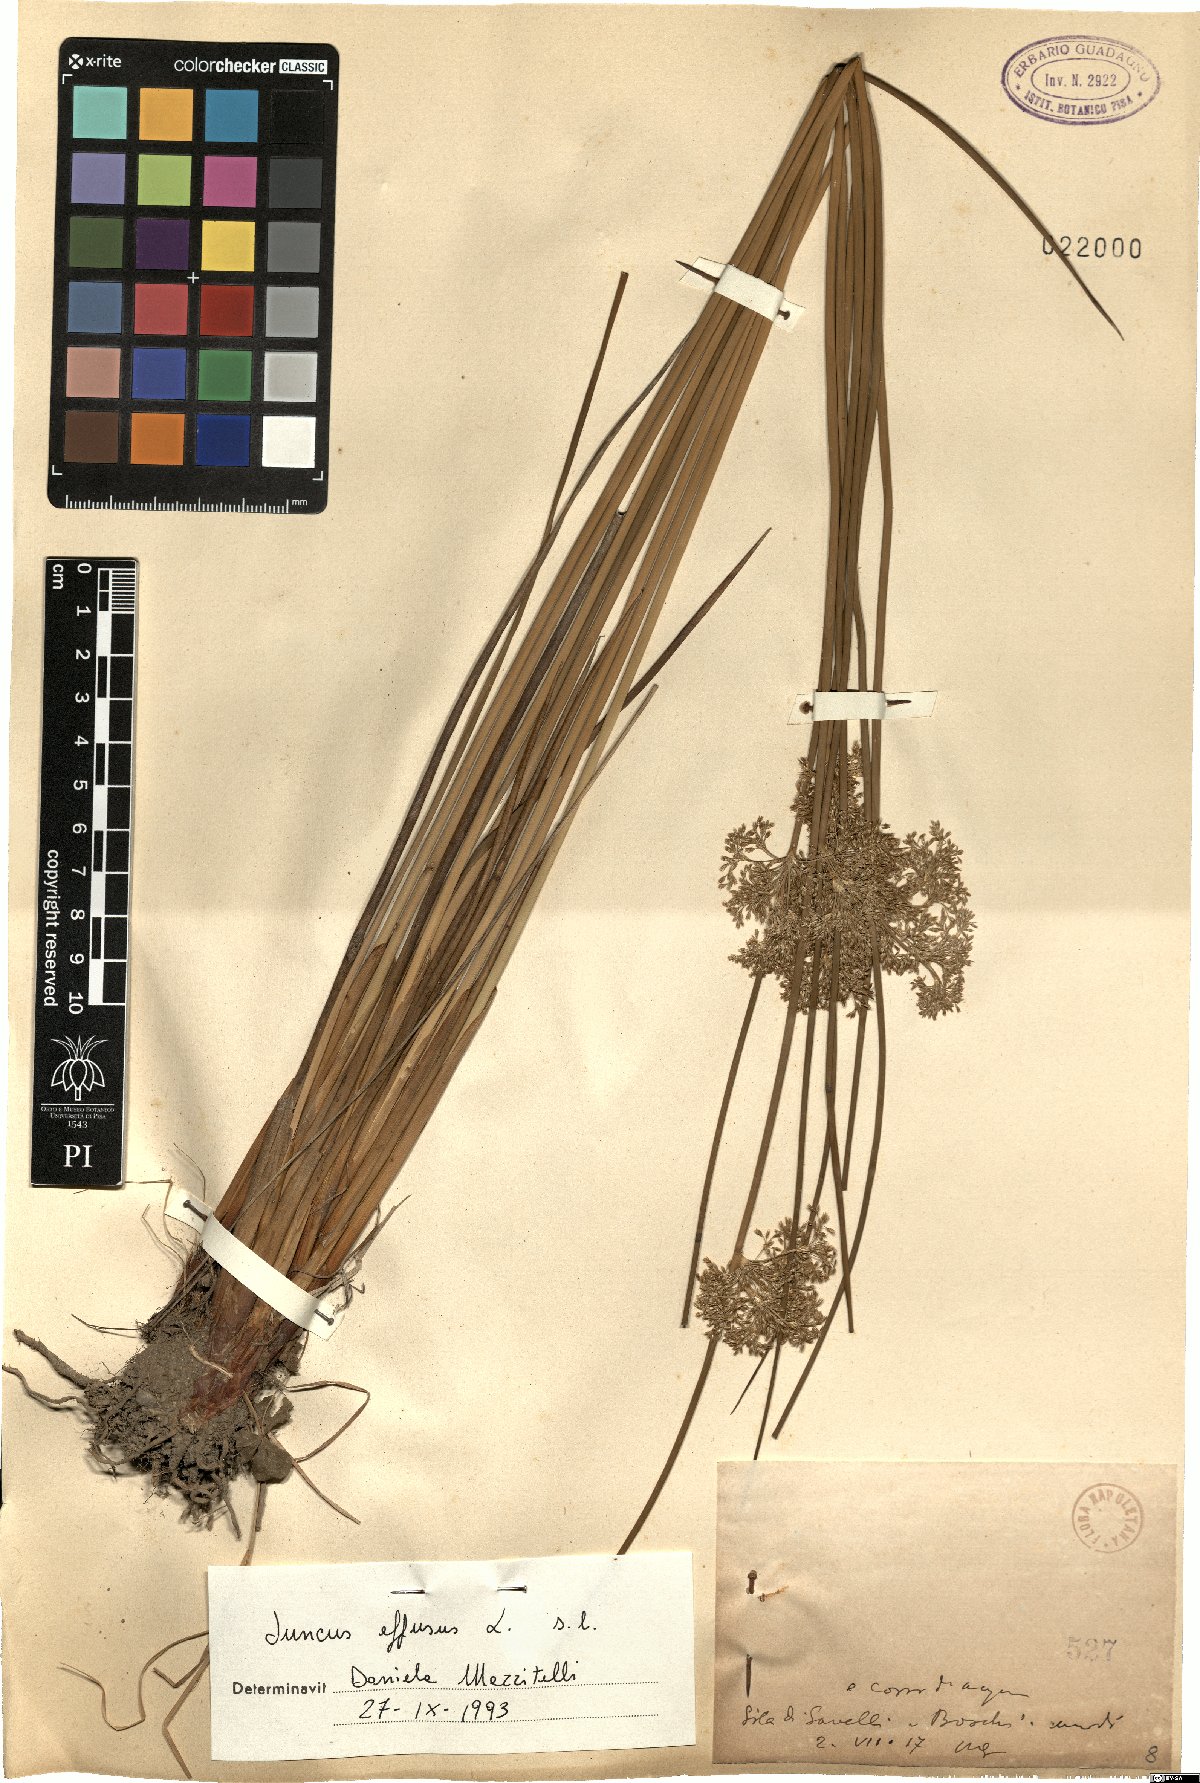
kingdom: Plantae
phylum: Tracheophyta
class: Liliopsida
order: Poales
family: Juncaceae
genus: Juncus
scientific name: Juncus effusus
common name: Soft rush
